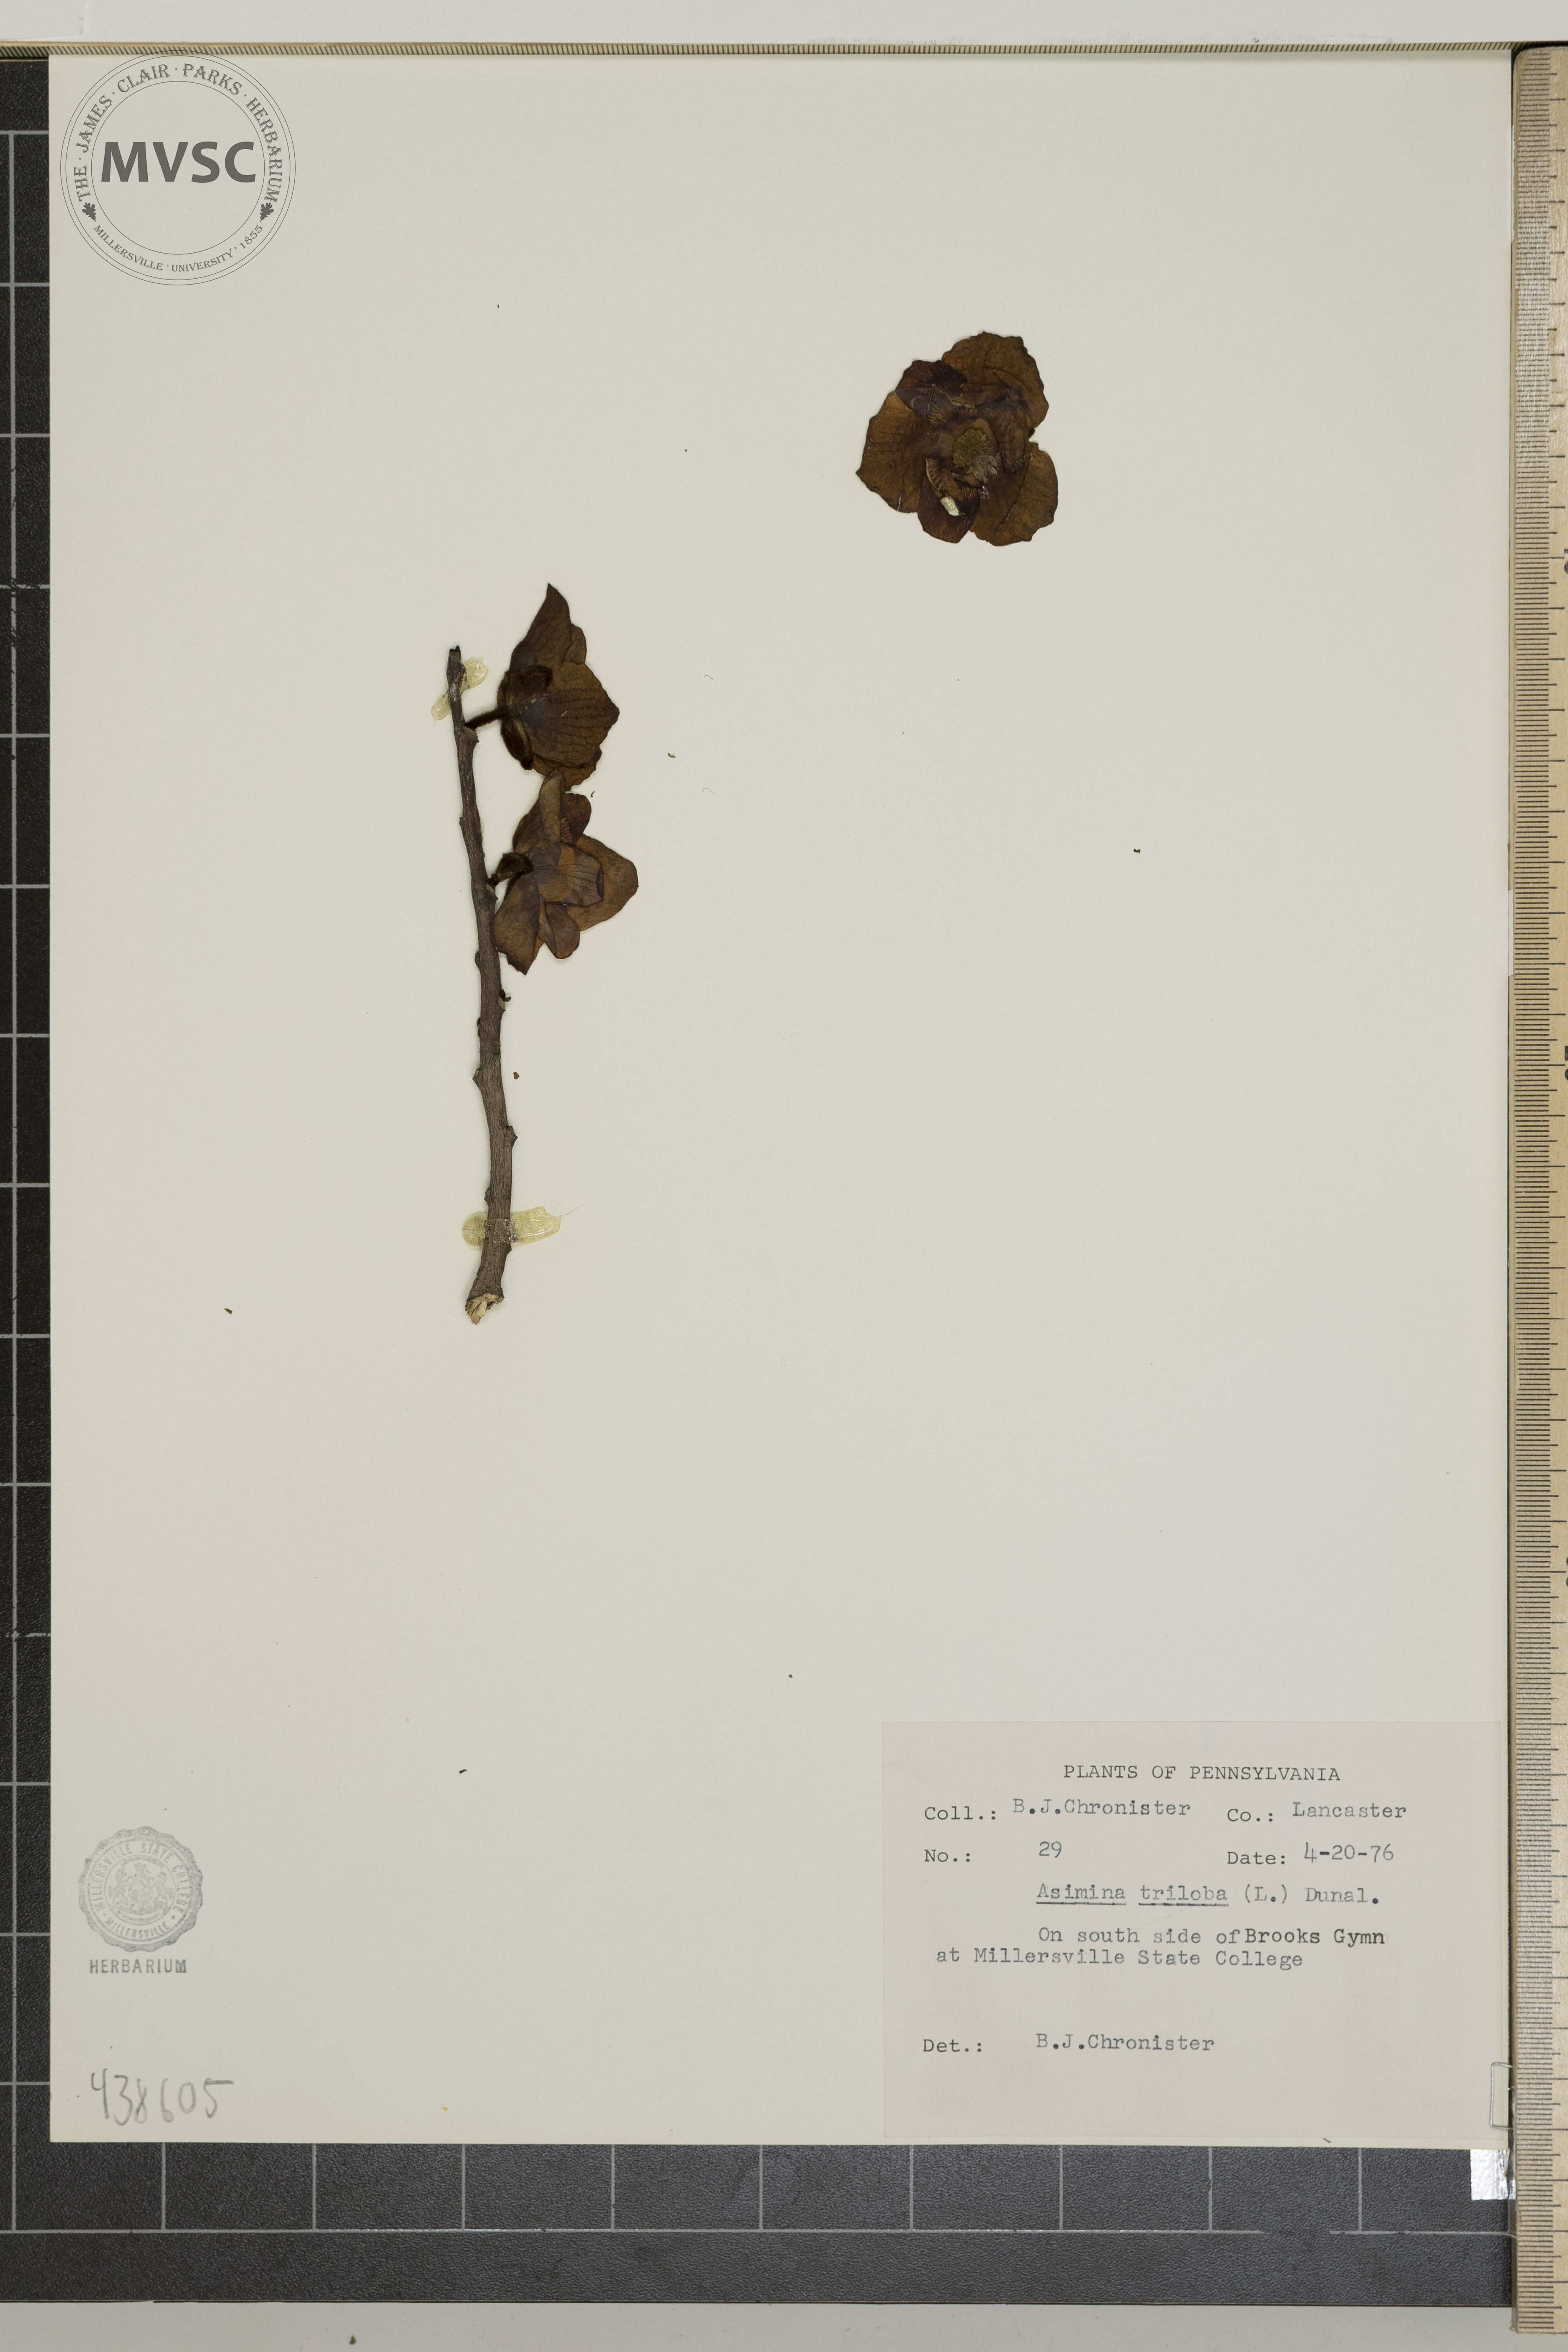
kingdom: Plantae
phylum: Tracheophyta
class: Magnoliopsida
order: Magnoliales
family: Annonaceae
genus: Asimina
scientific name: Asimina triloba
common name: PawPaw
